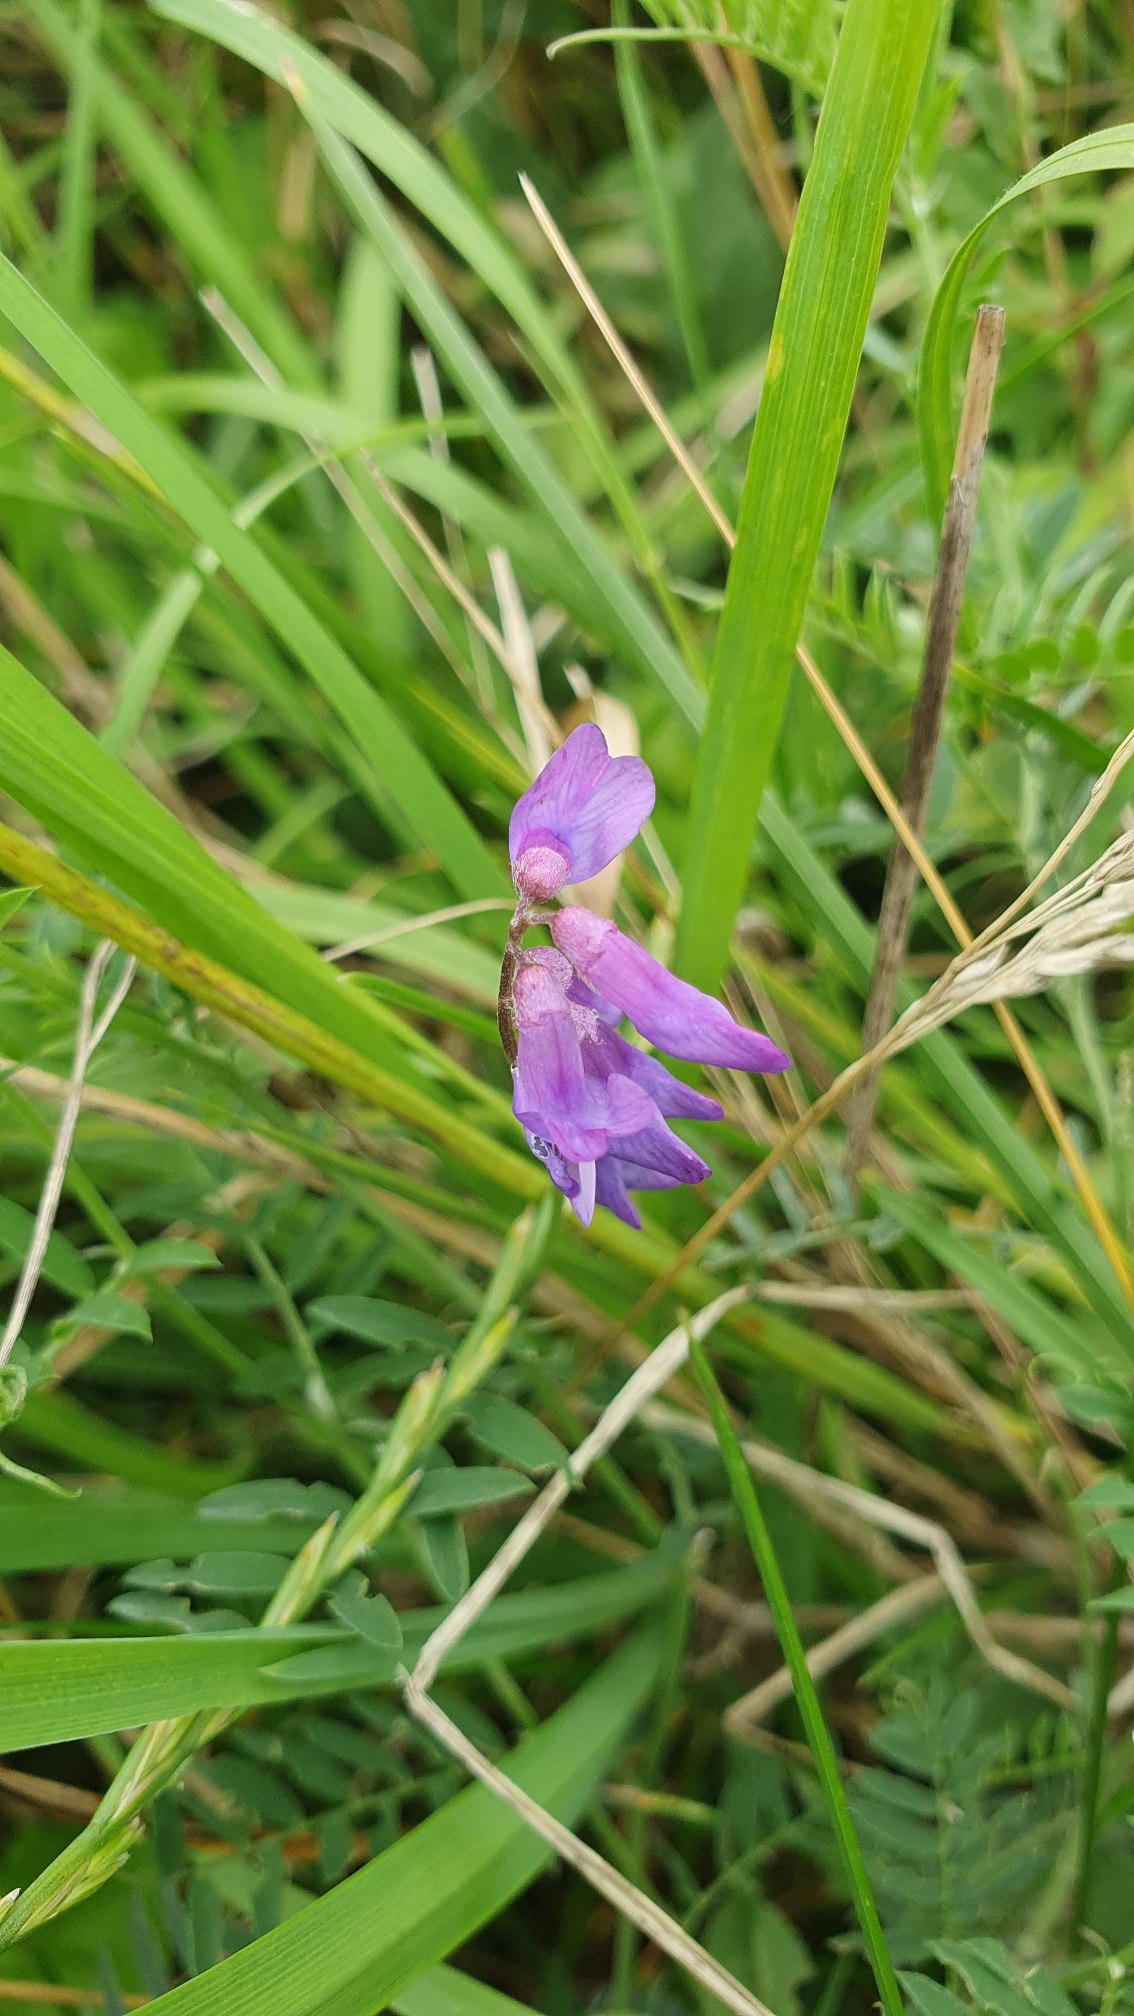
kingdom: Plantae
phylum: Tracheophyta
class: Magnoliopsida
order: Fabales
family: Fabaceae
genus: Vicia
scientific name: Vicia cracca
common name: Muse-vikke
